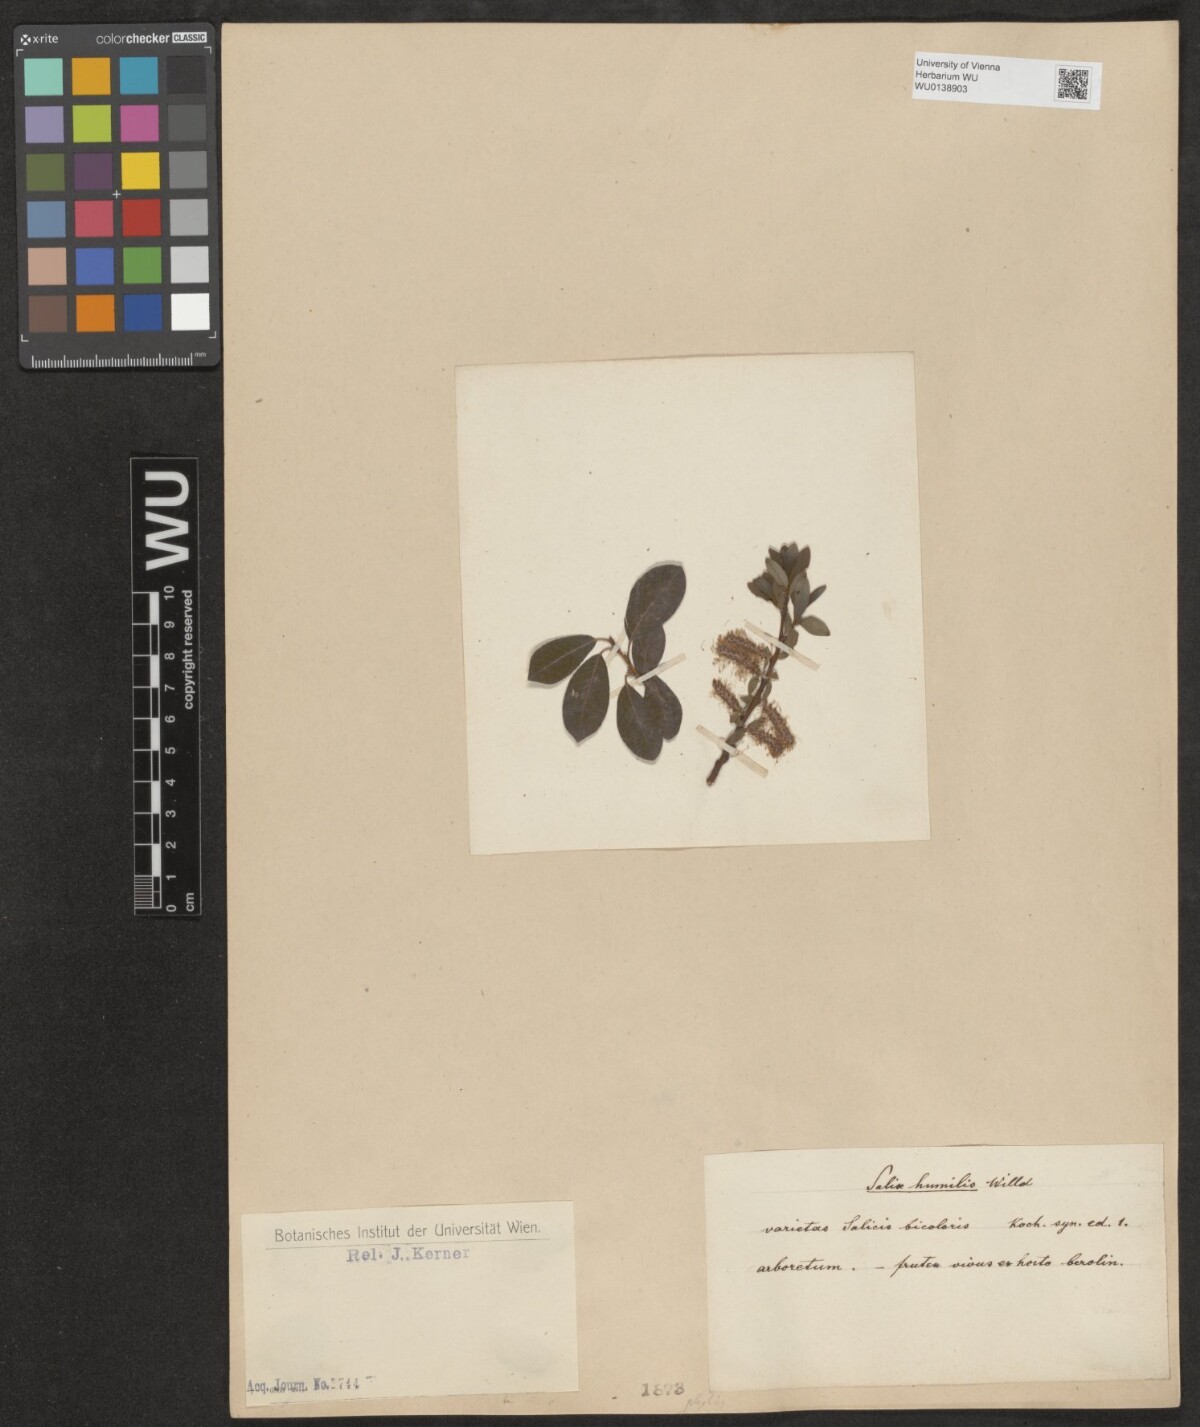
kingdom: Plantae
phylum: Tracheophyta
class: Magnoliopsida
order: Malpighiales
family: Salicaceae
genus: Salix
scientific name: Salix phylicifolia
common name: Tea-leaved willow
